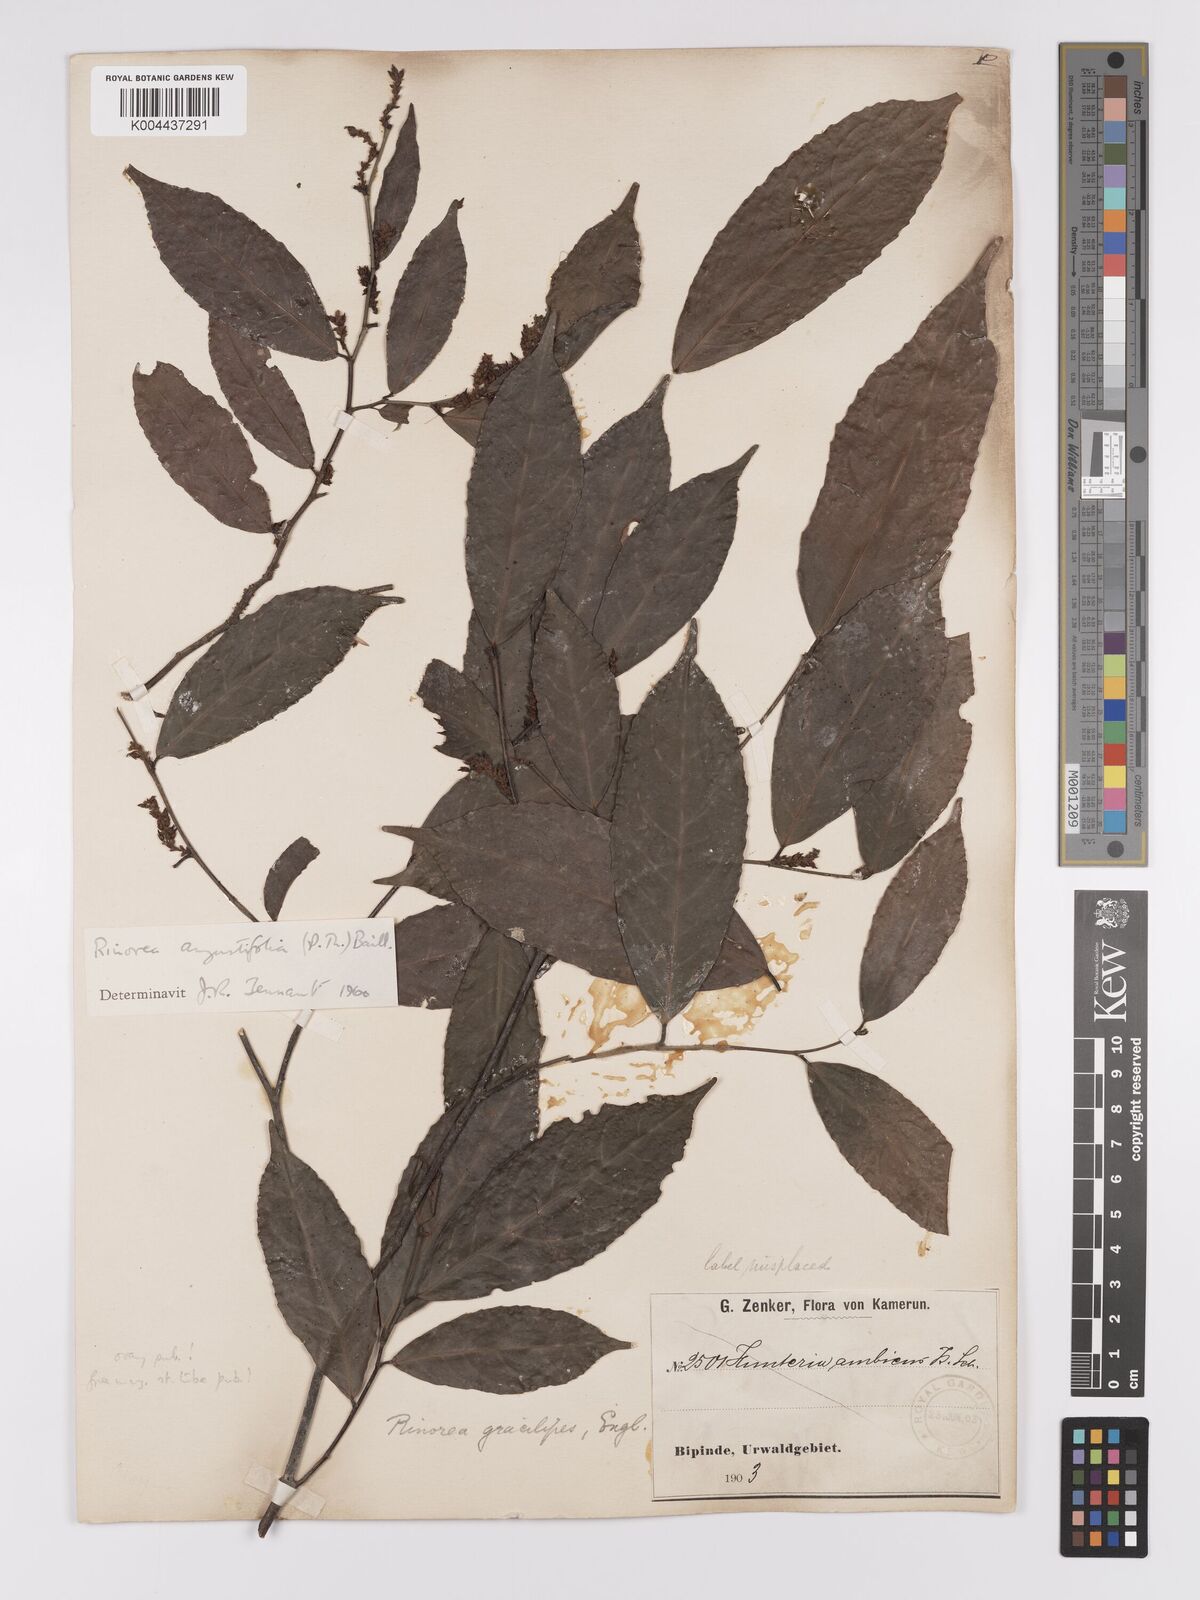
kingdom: Plantae
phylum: Tracheophyta
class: Magnoliopsida
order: Malpighiales
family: Violaceae
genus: Rinorea
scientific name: Rinorea angustifolia
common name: White violet-bush
